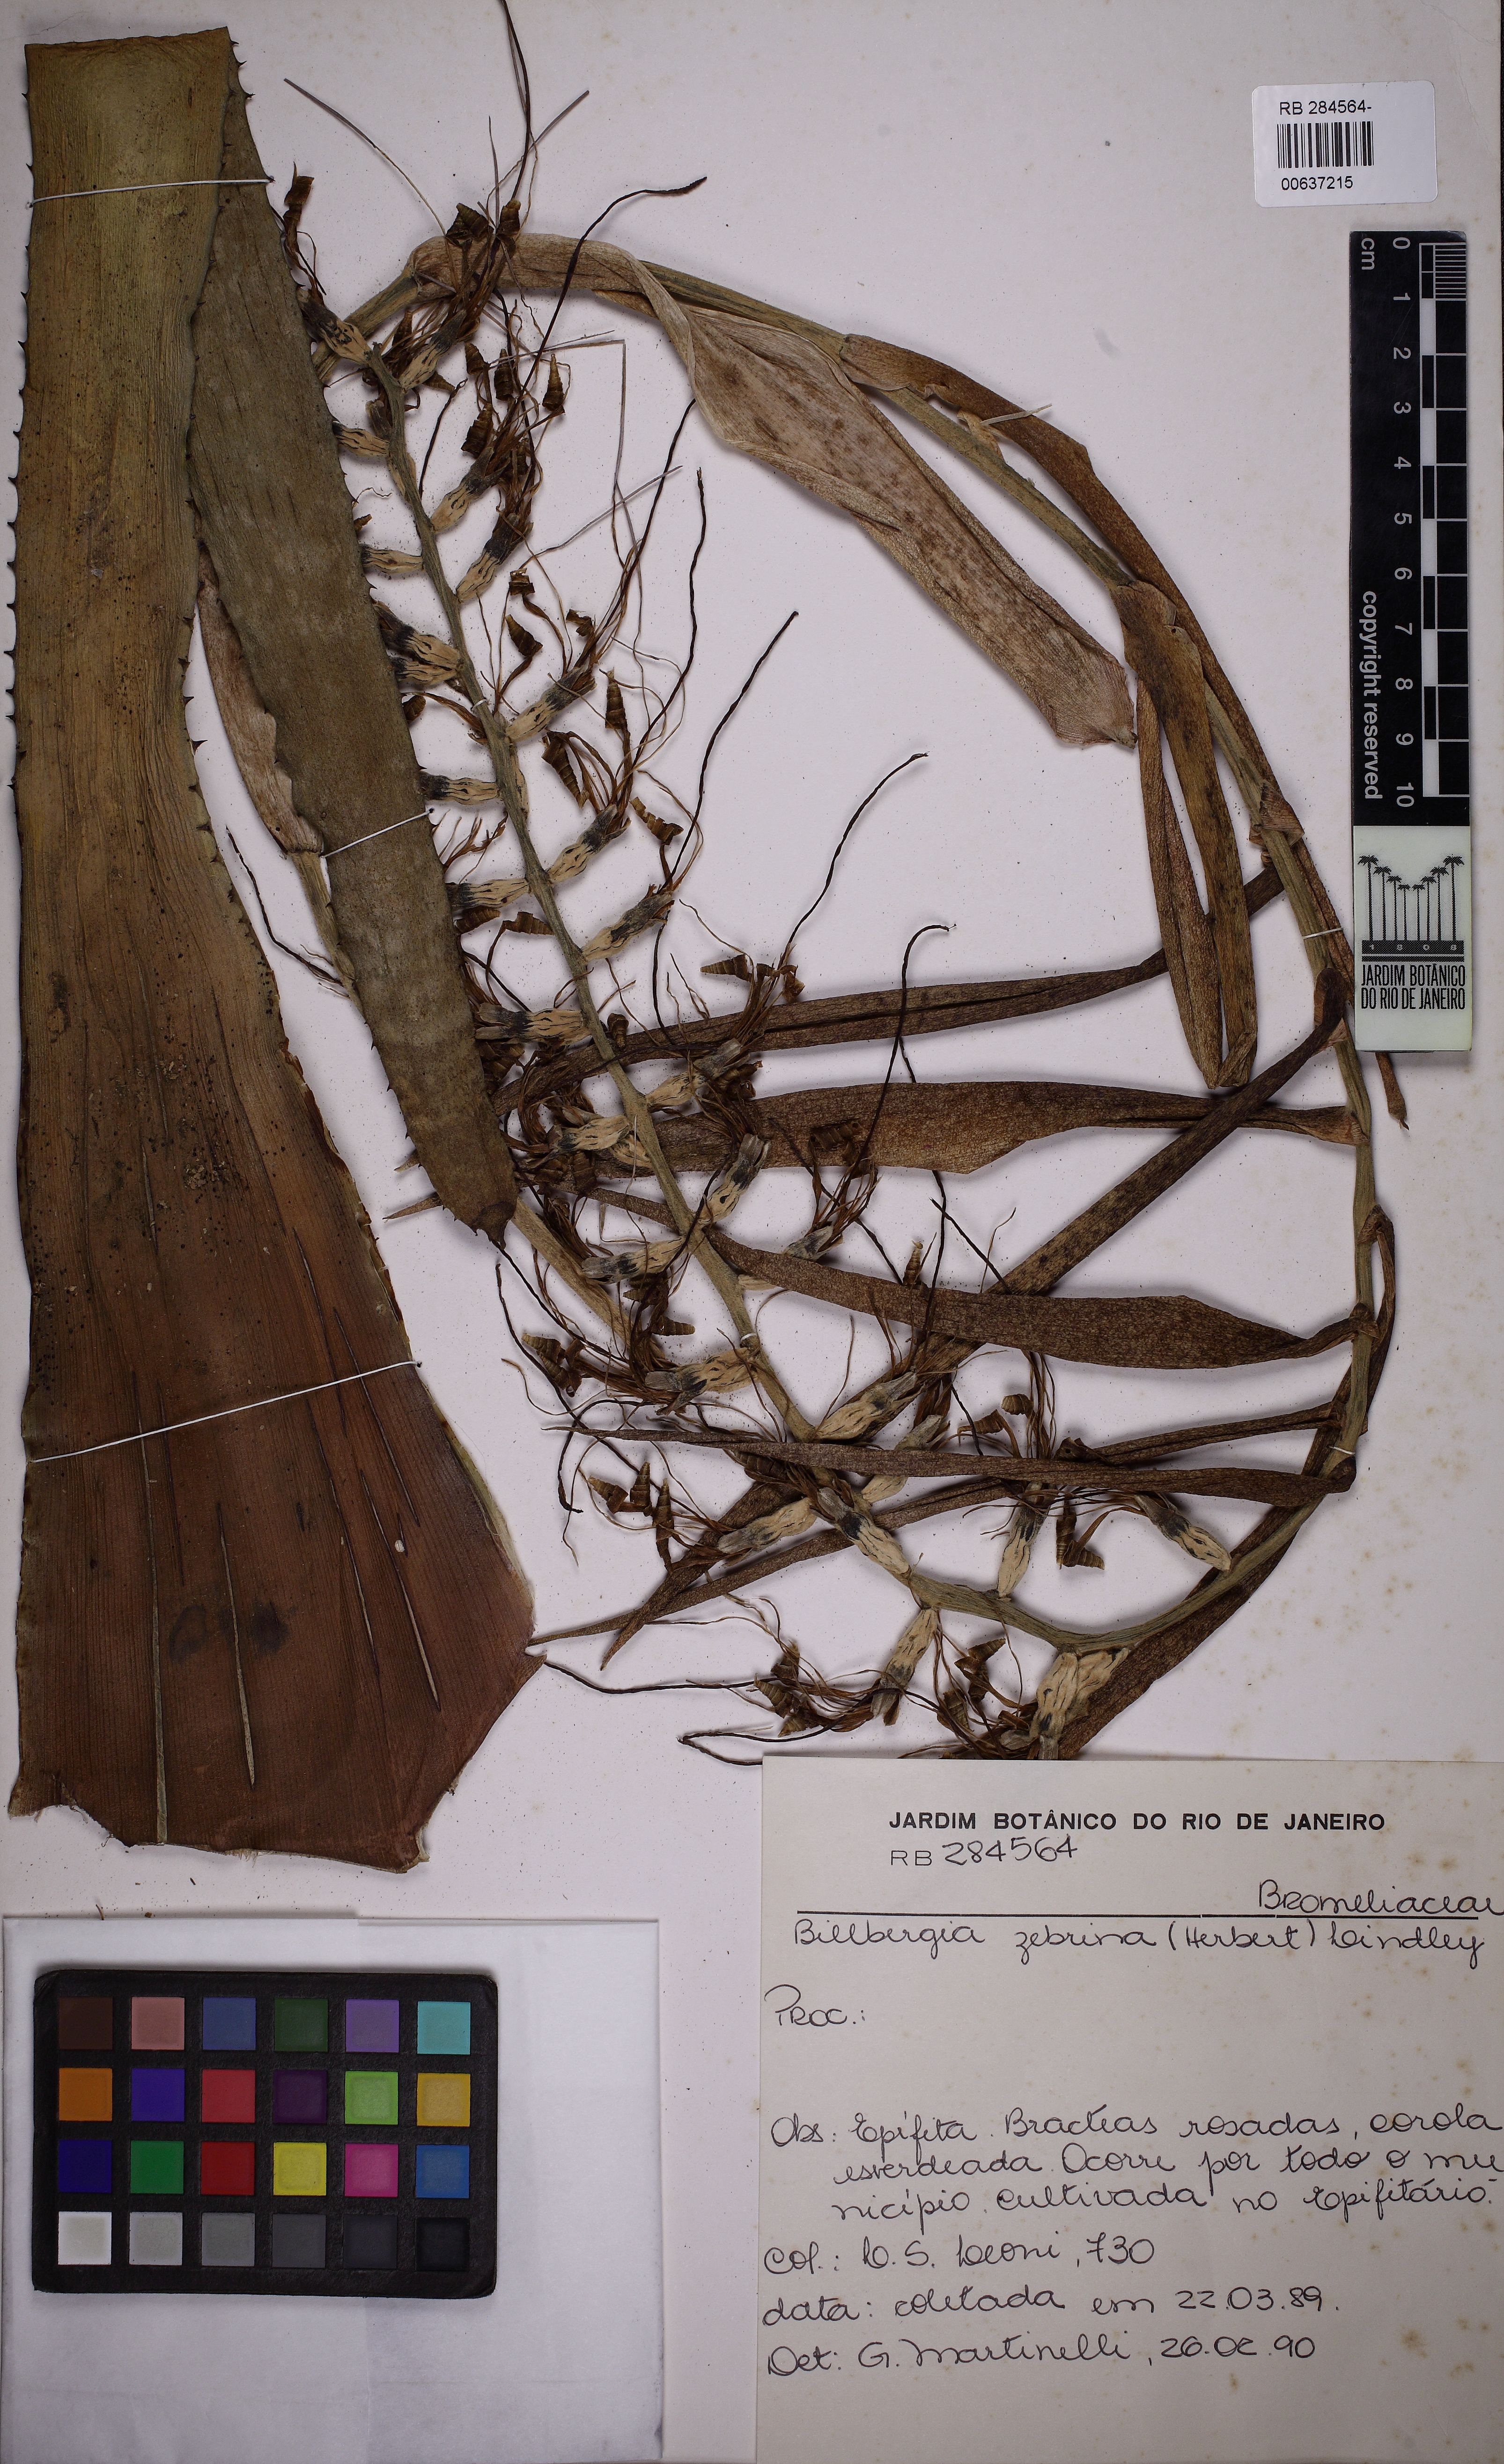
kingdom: Plantae
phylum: Tracheophyta
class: Liliopsida
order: Poales
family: Bromeliaceae
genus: Billbergia
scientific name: Billbergia zebrina
